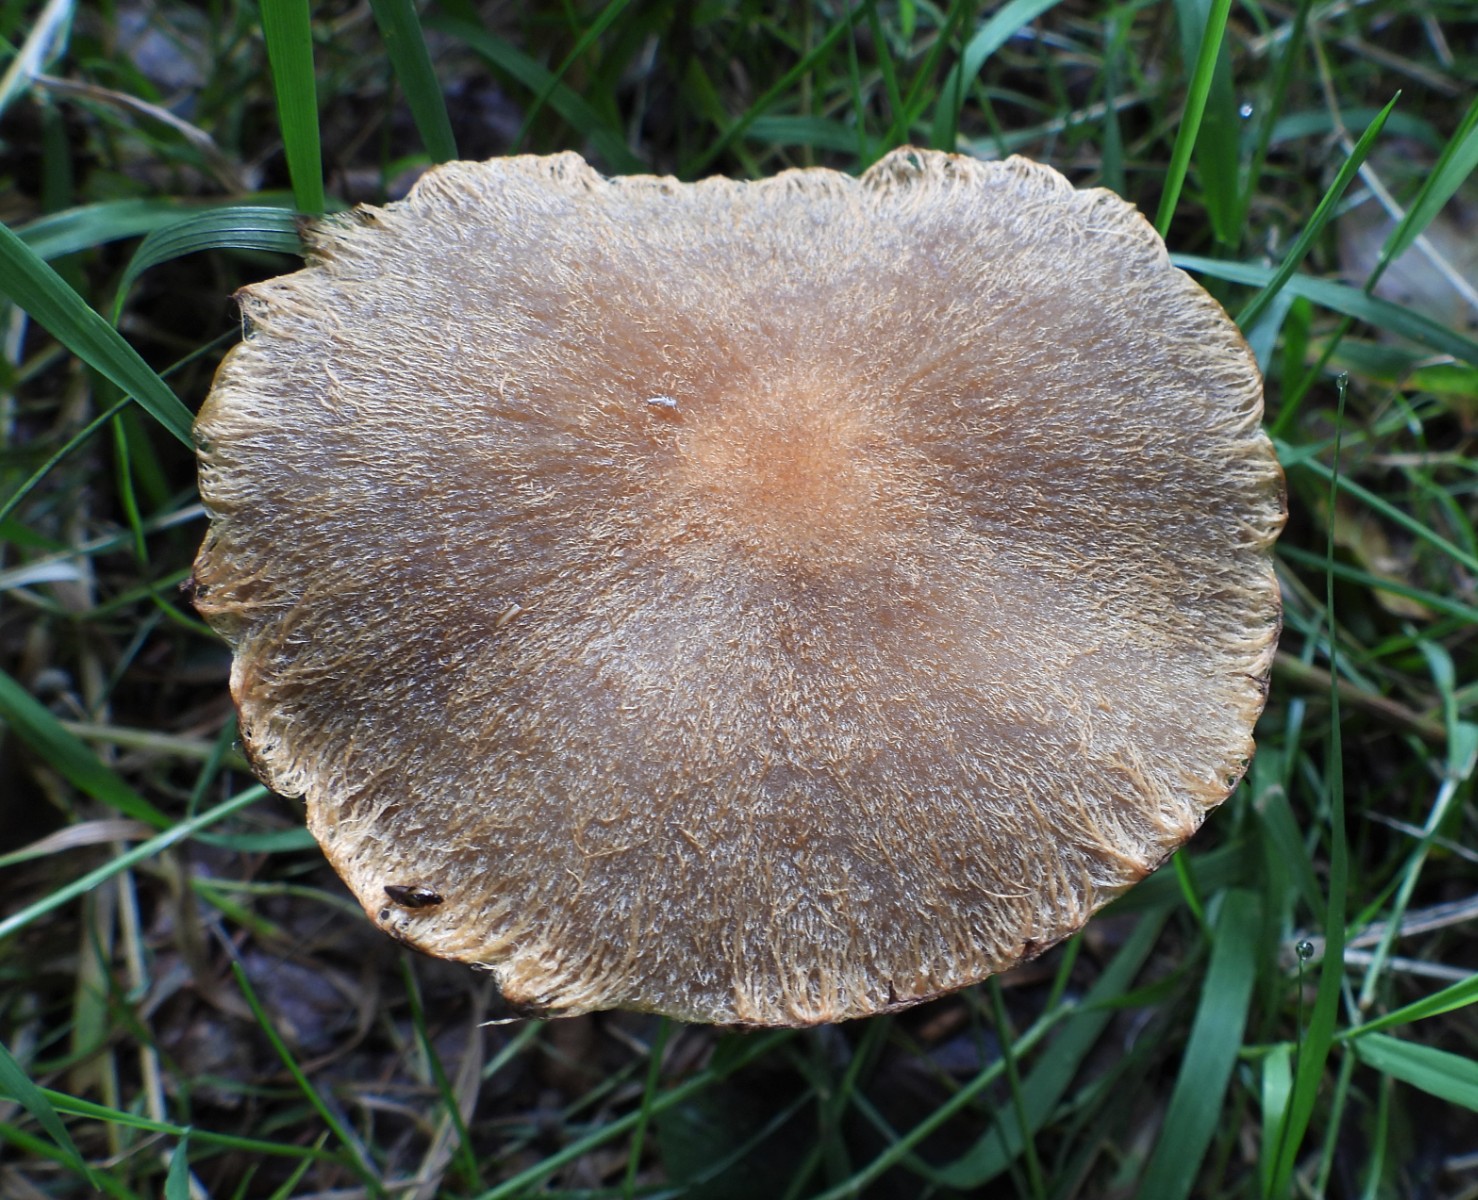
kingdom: Fungi
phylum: Basidiomycota
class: Agaricomycetes
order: Agaricales
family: Psathyrellaceae
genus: Lacrymaria
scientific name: Lacrymaria
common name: mørkhat
